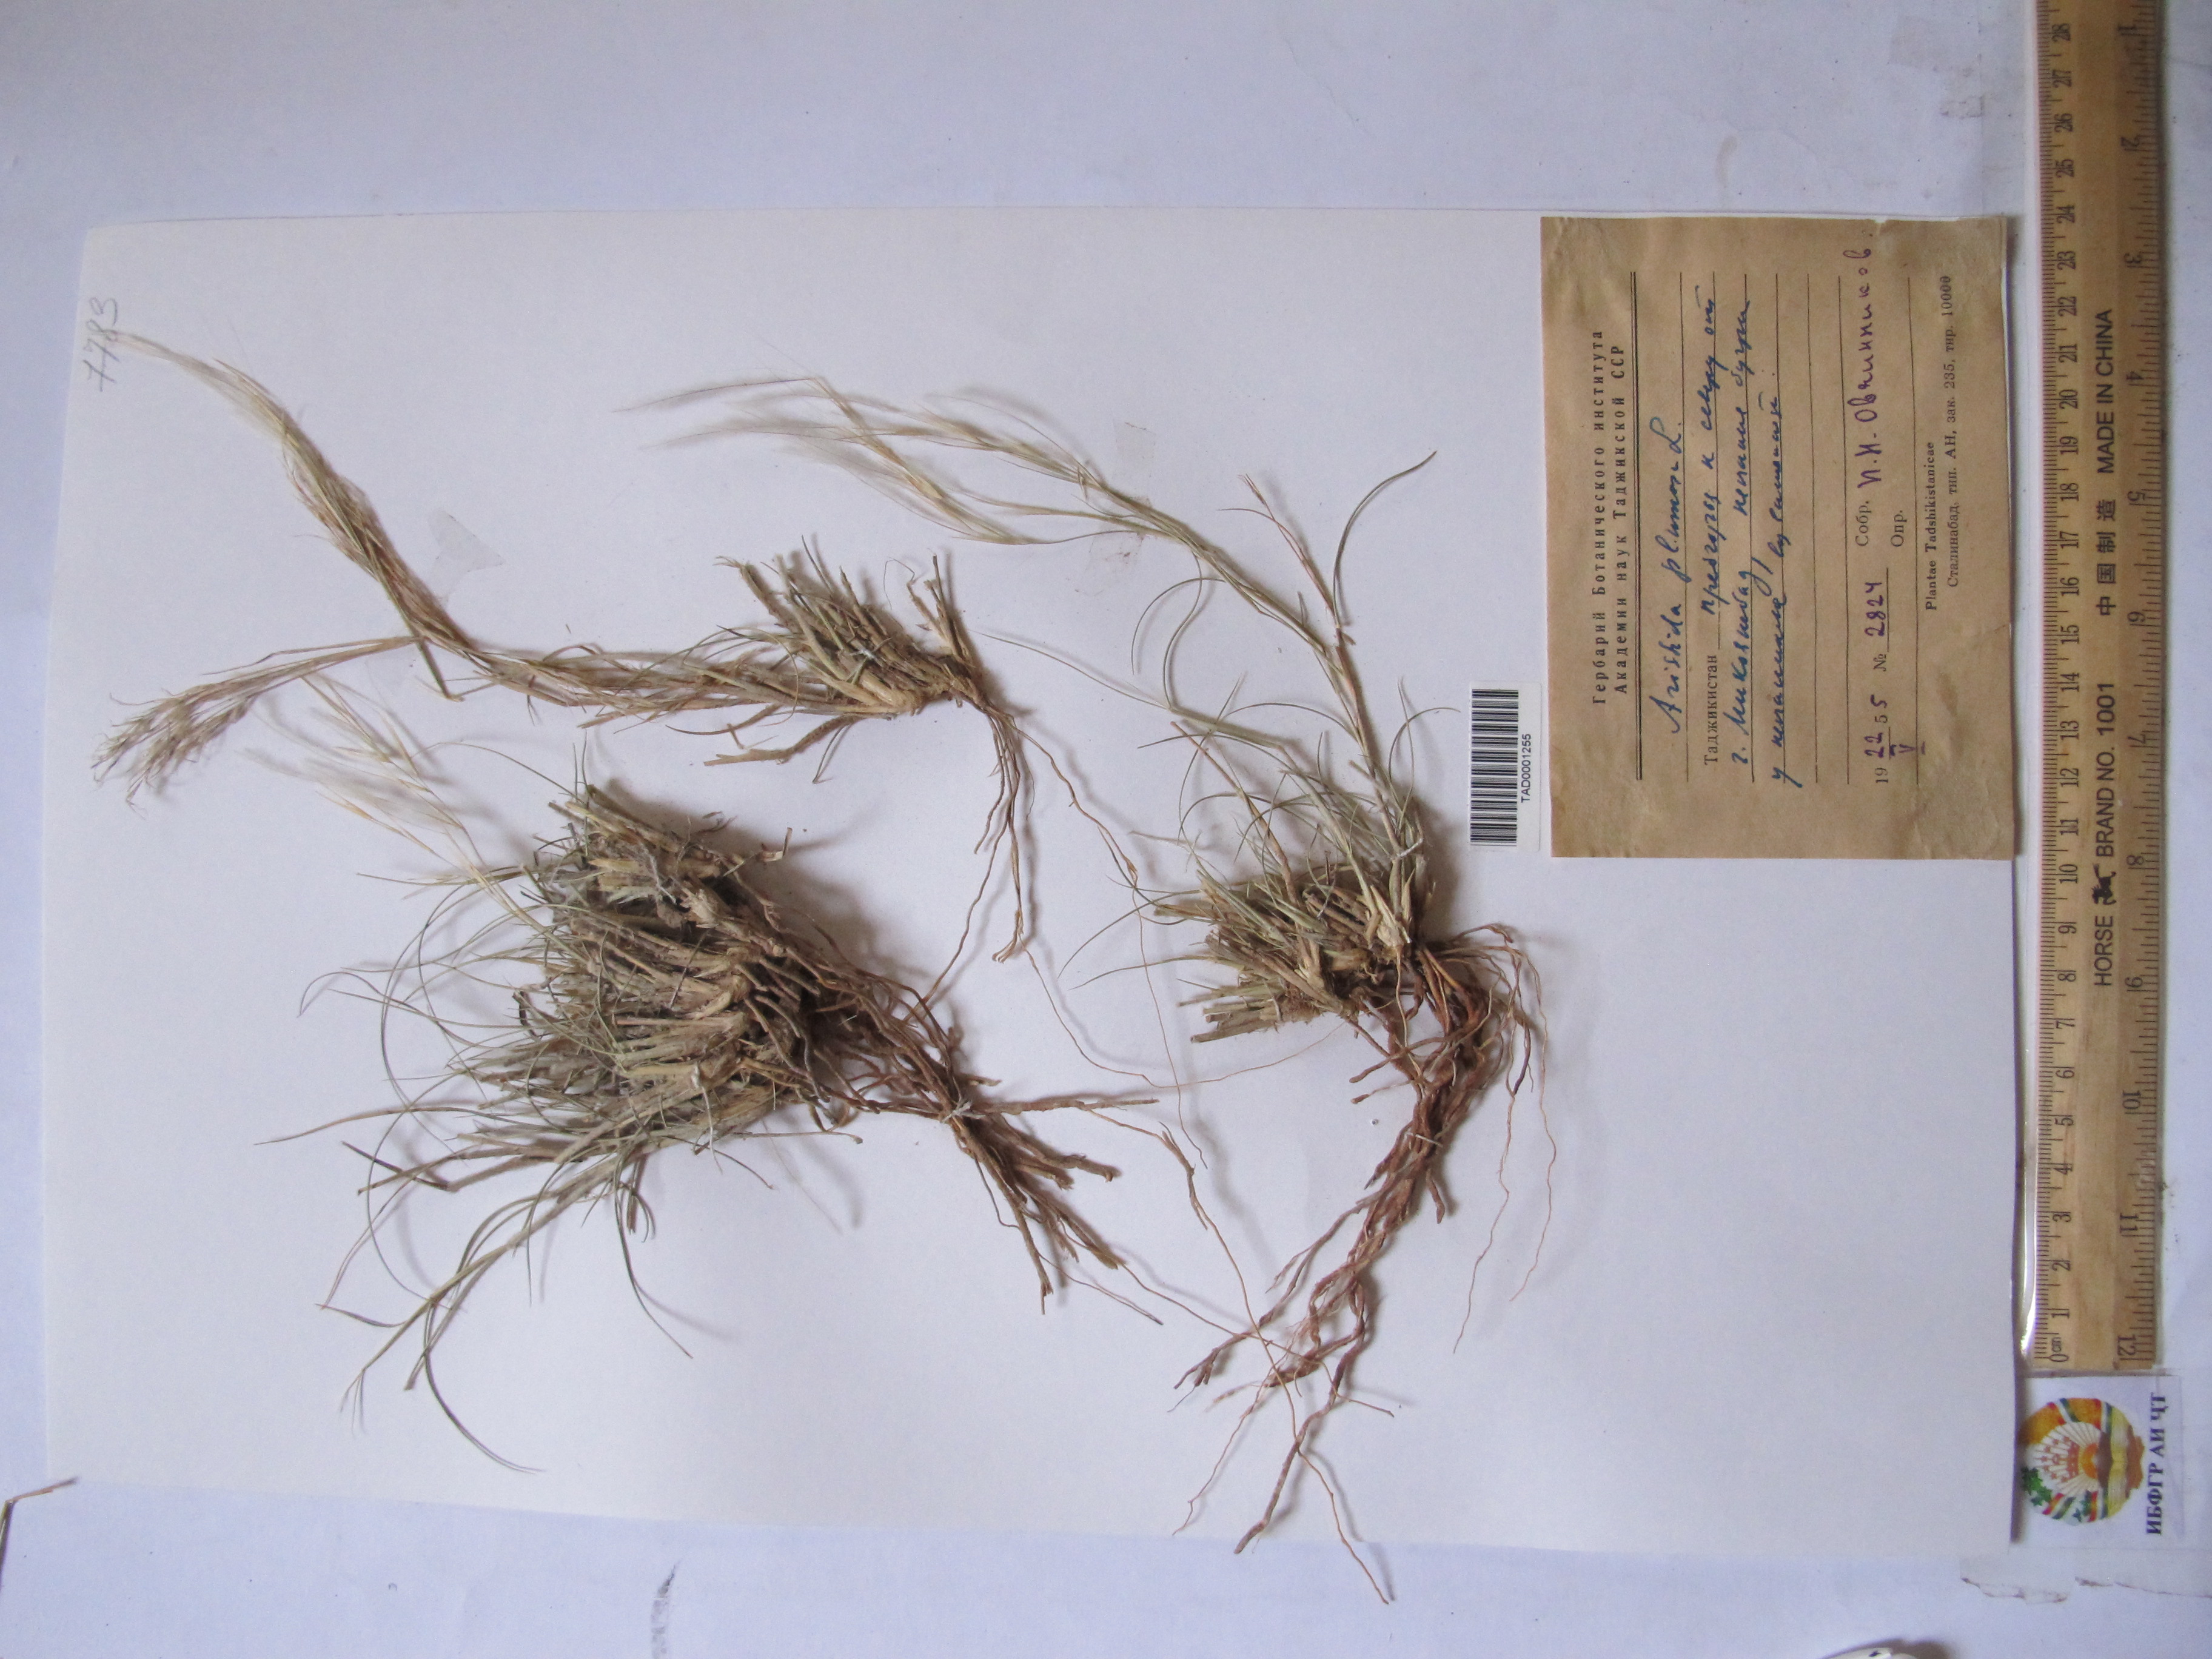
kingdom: Plantae
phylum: Tracheophyta
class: Liliopsida
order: Poales
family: Poaceae
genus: Stipagrostis
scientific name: Stipagrostis plumosa
